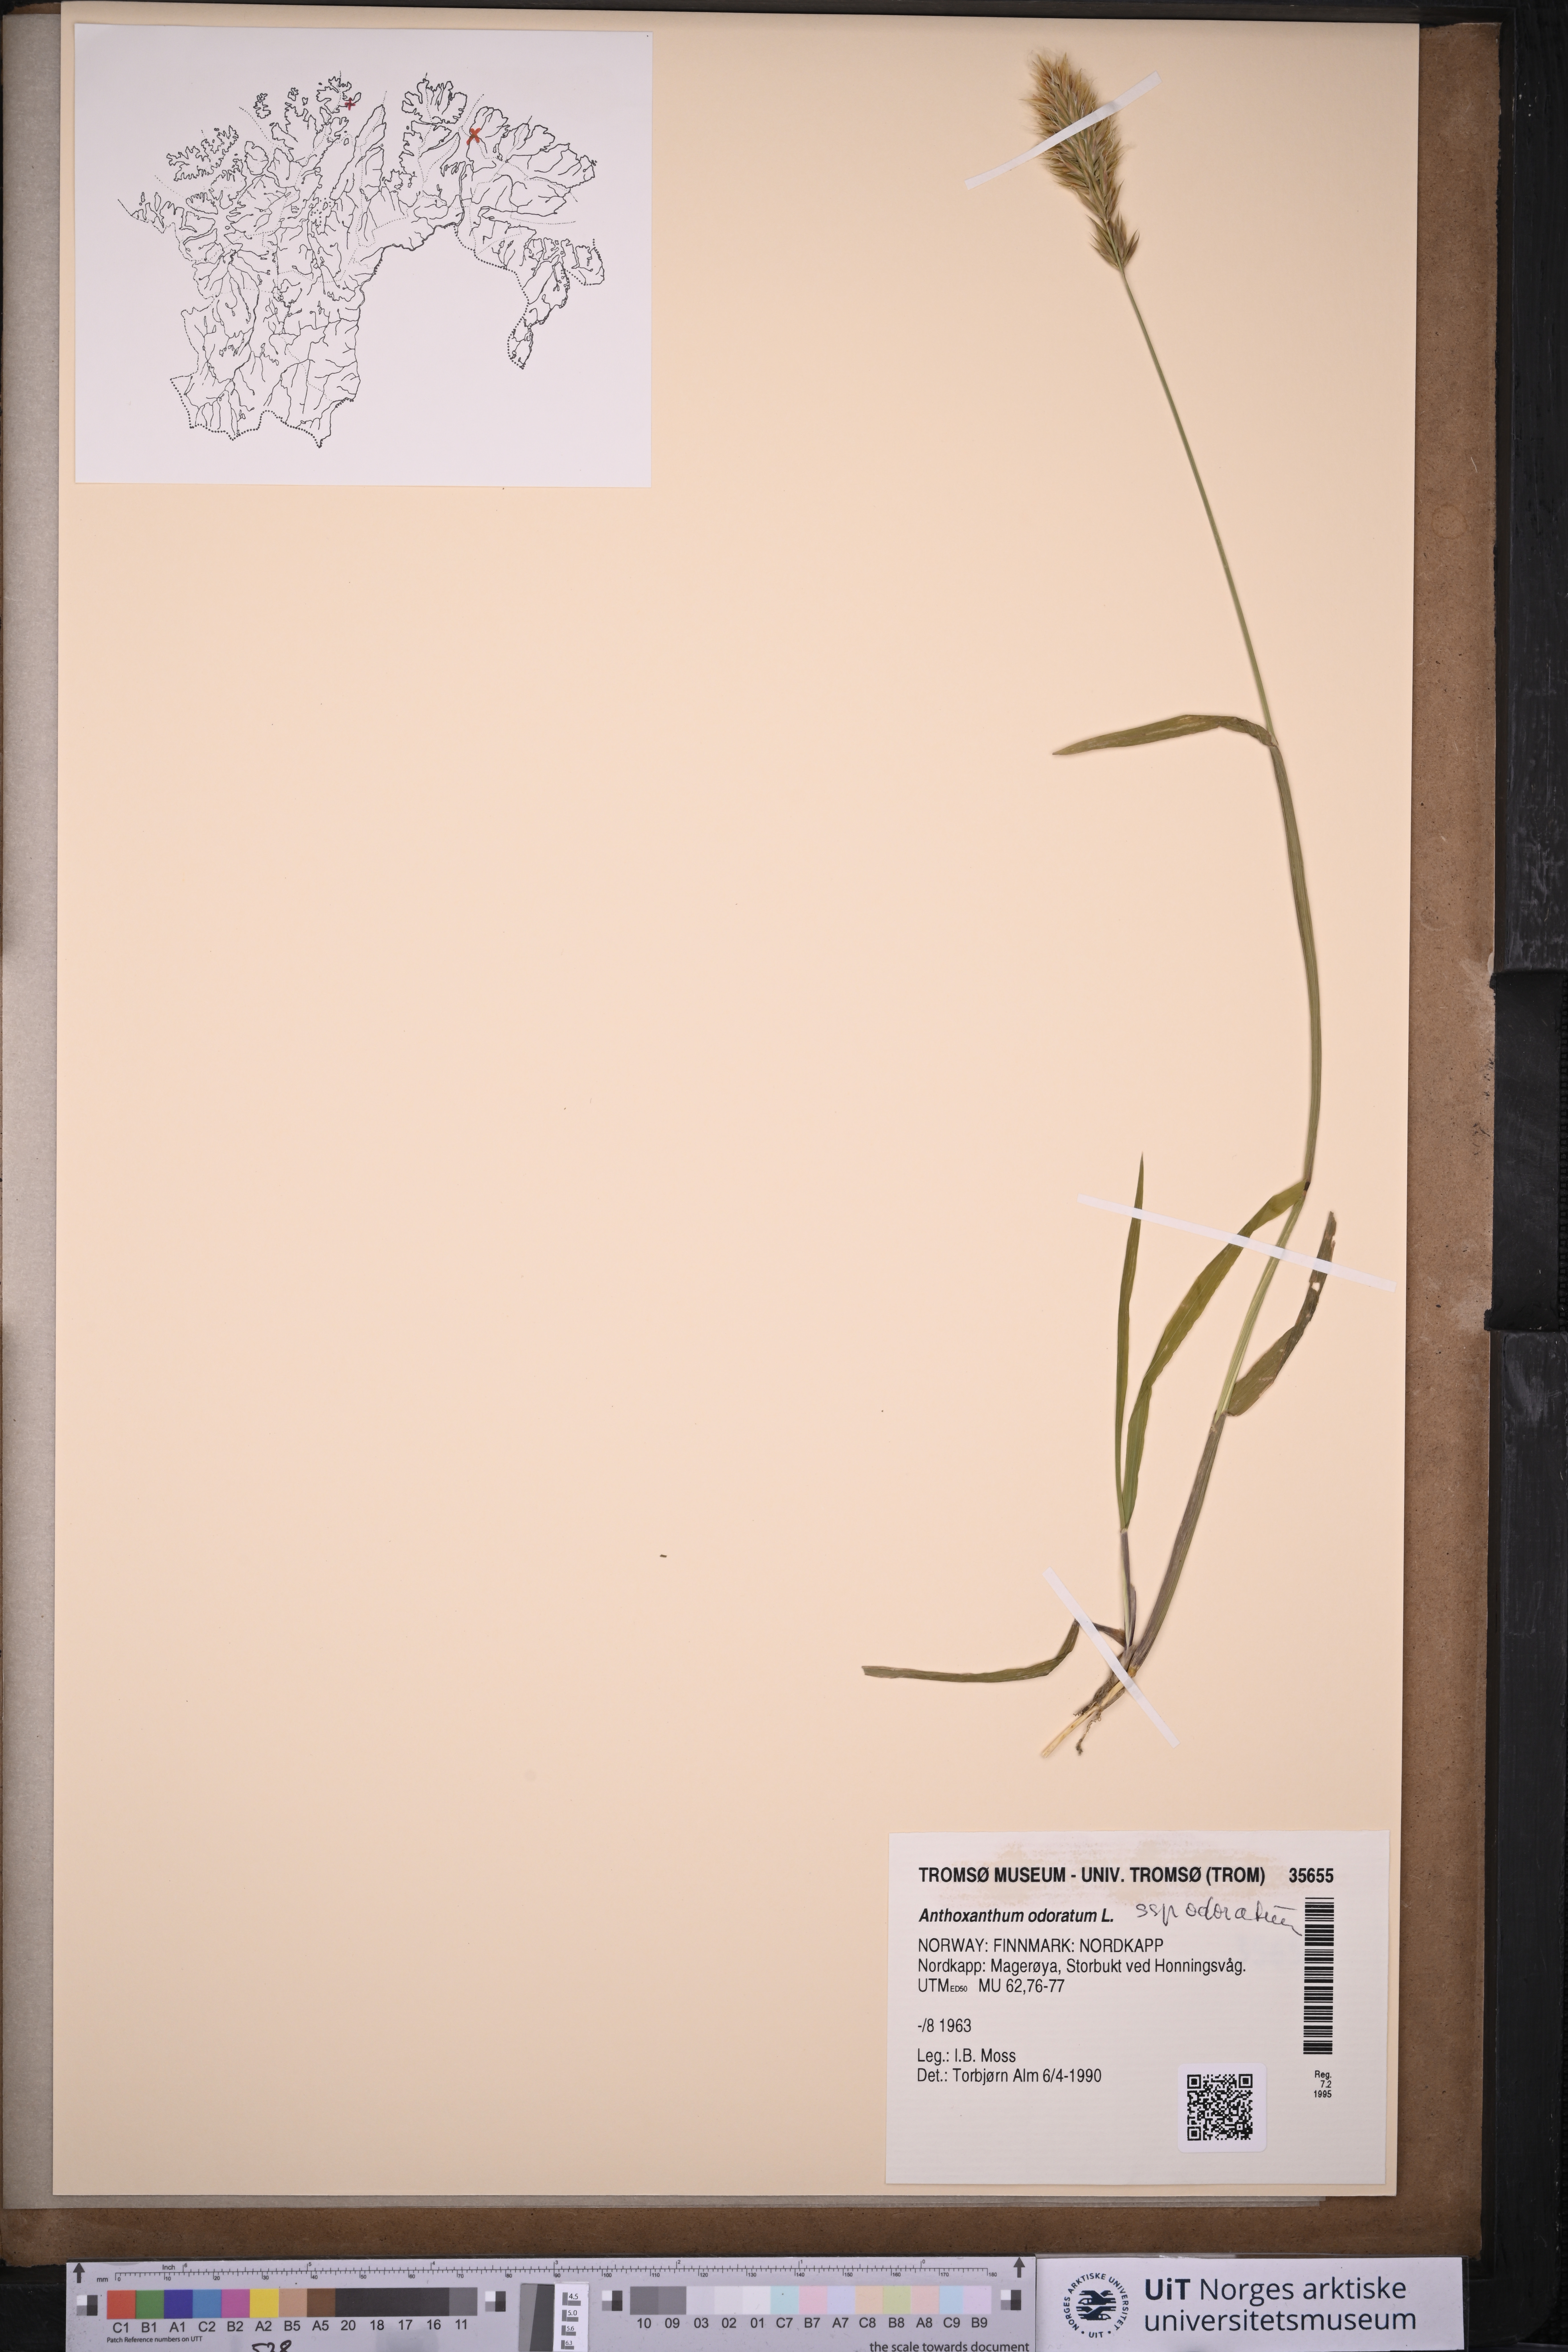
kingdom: Plantae
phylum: Tracheophyta
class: Liliopsida
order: Poales
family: Poaceae
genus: Anthoxanthum
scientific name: Anthoxanthum odoratum
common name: Sweet vernalgrass
